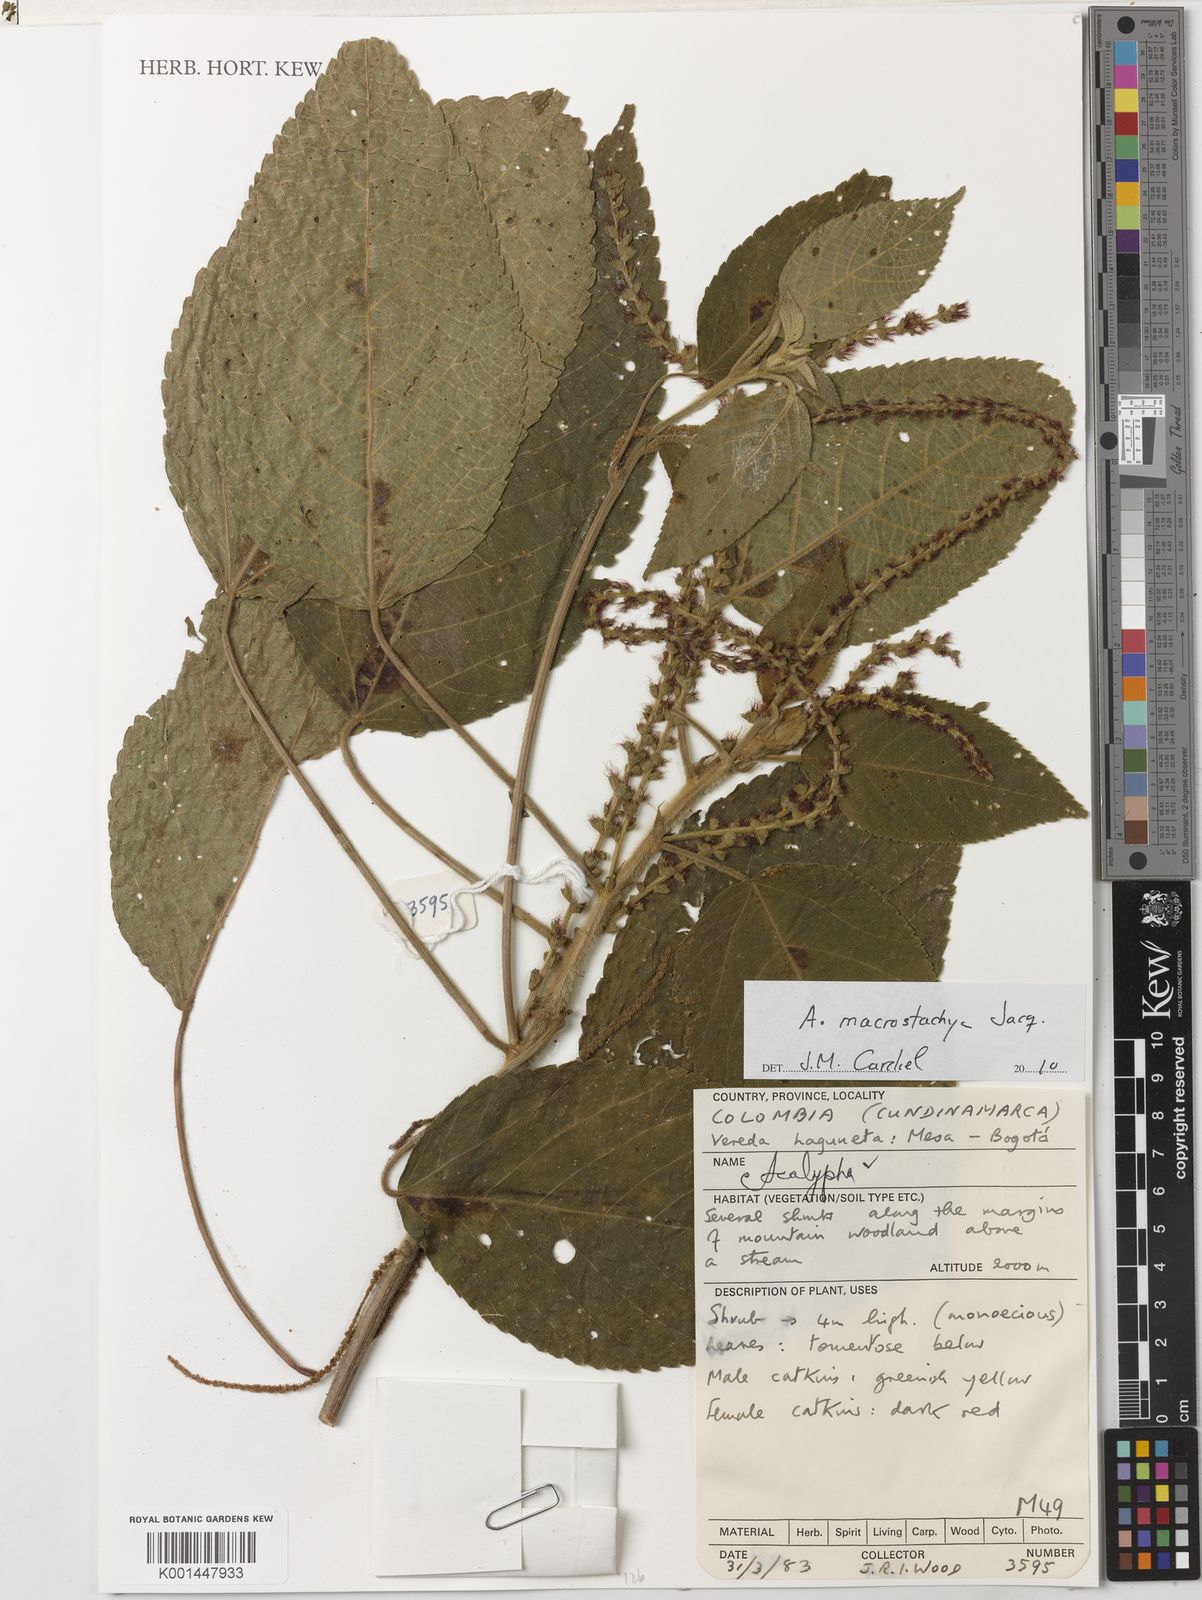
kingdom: Plantae
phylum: Tracheophyta
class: Magnoliopsida
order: Malpighiales
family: Euphorbiaceae
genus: Acalypha
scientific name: Acalypha macrostachya
